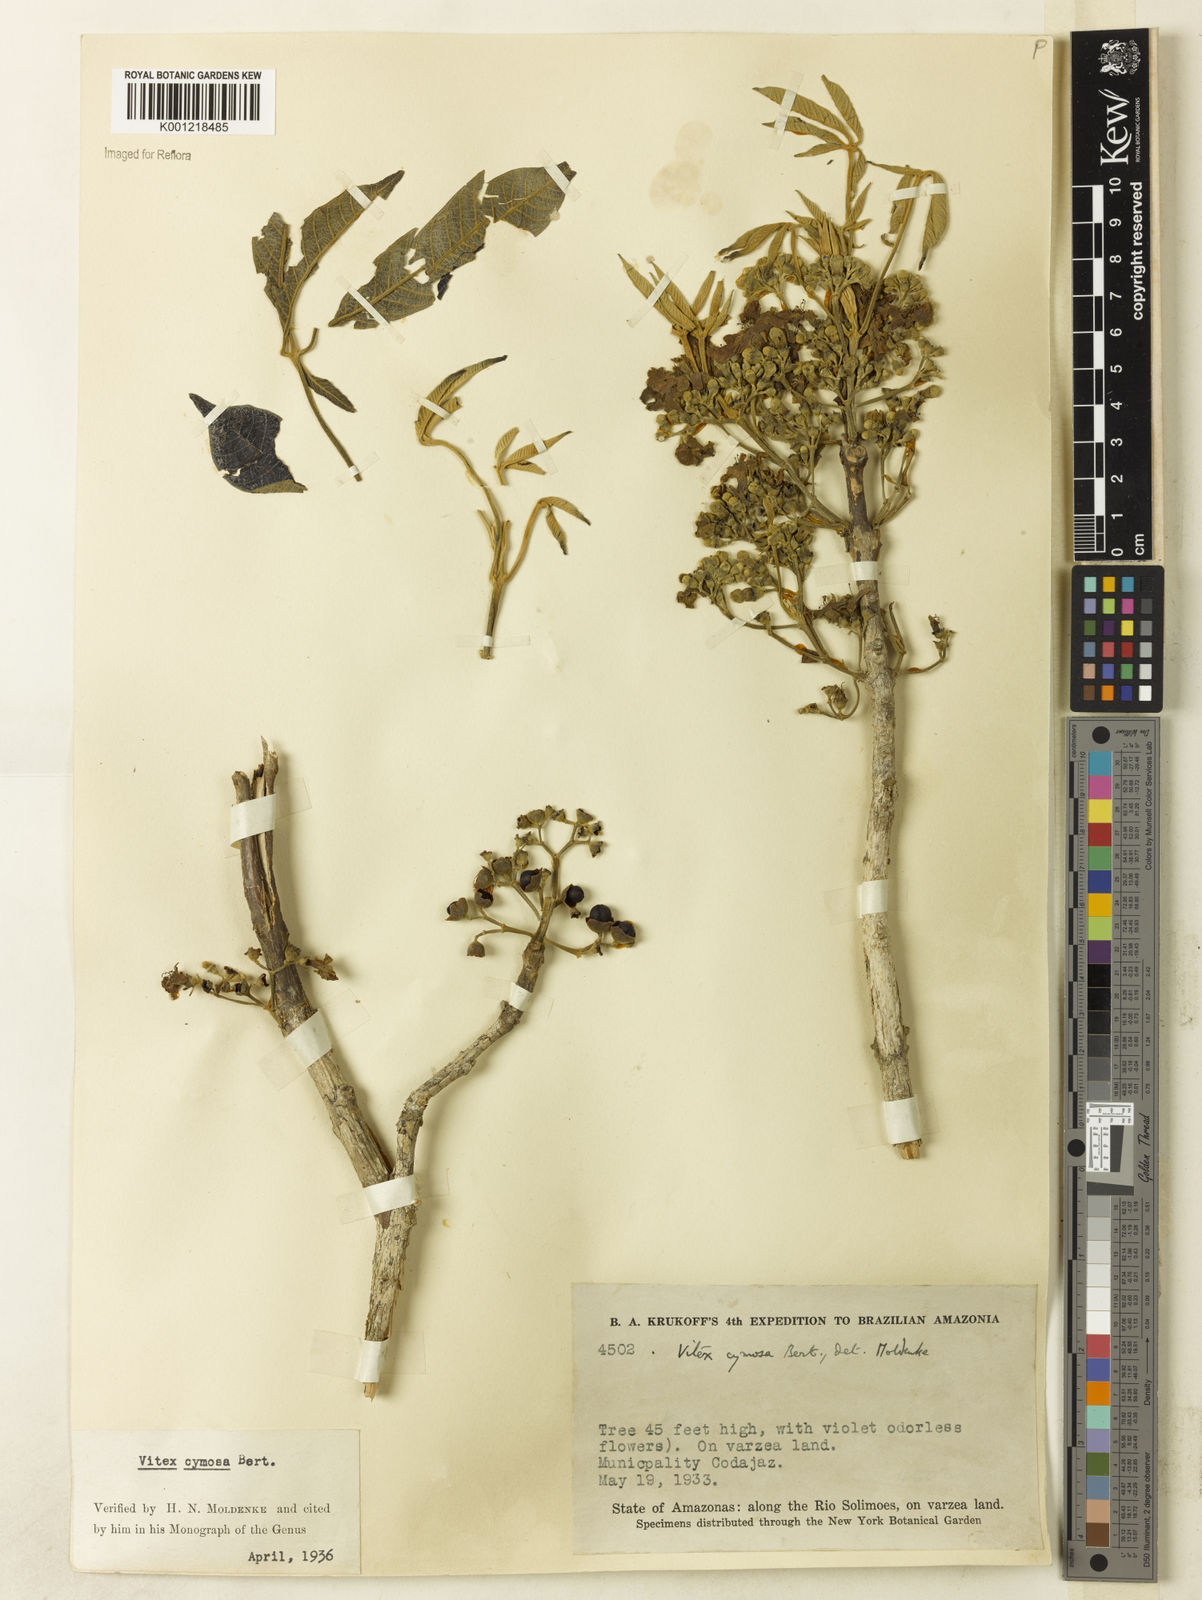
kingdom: Plantae
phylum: Tracheophyta
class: Magnoliopsida
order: Lamiales
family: Lamiaceae
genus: Vitex
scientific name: Vitex cymosa
